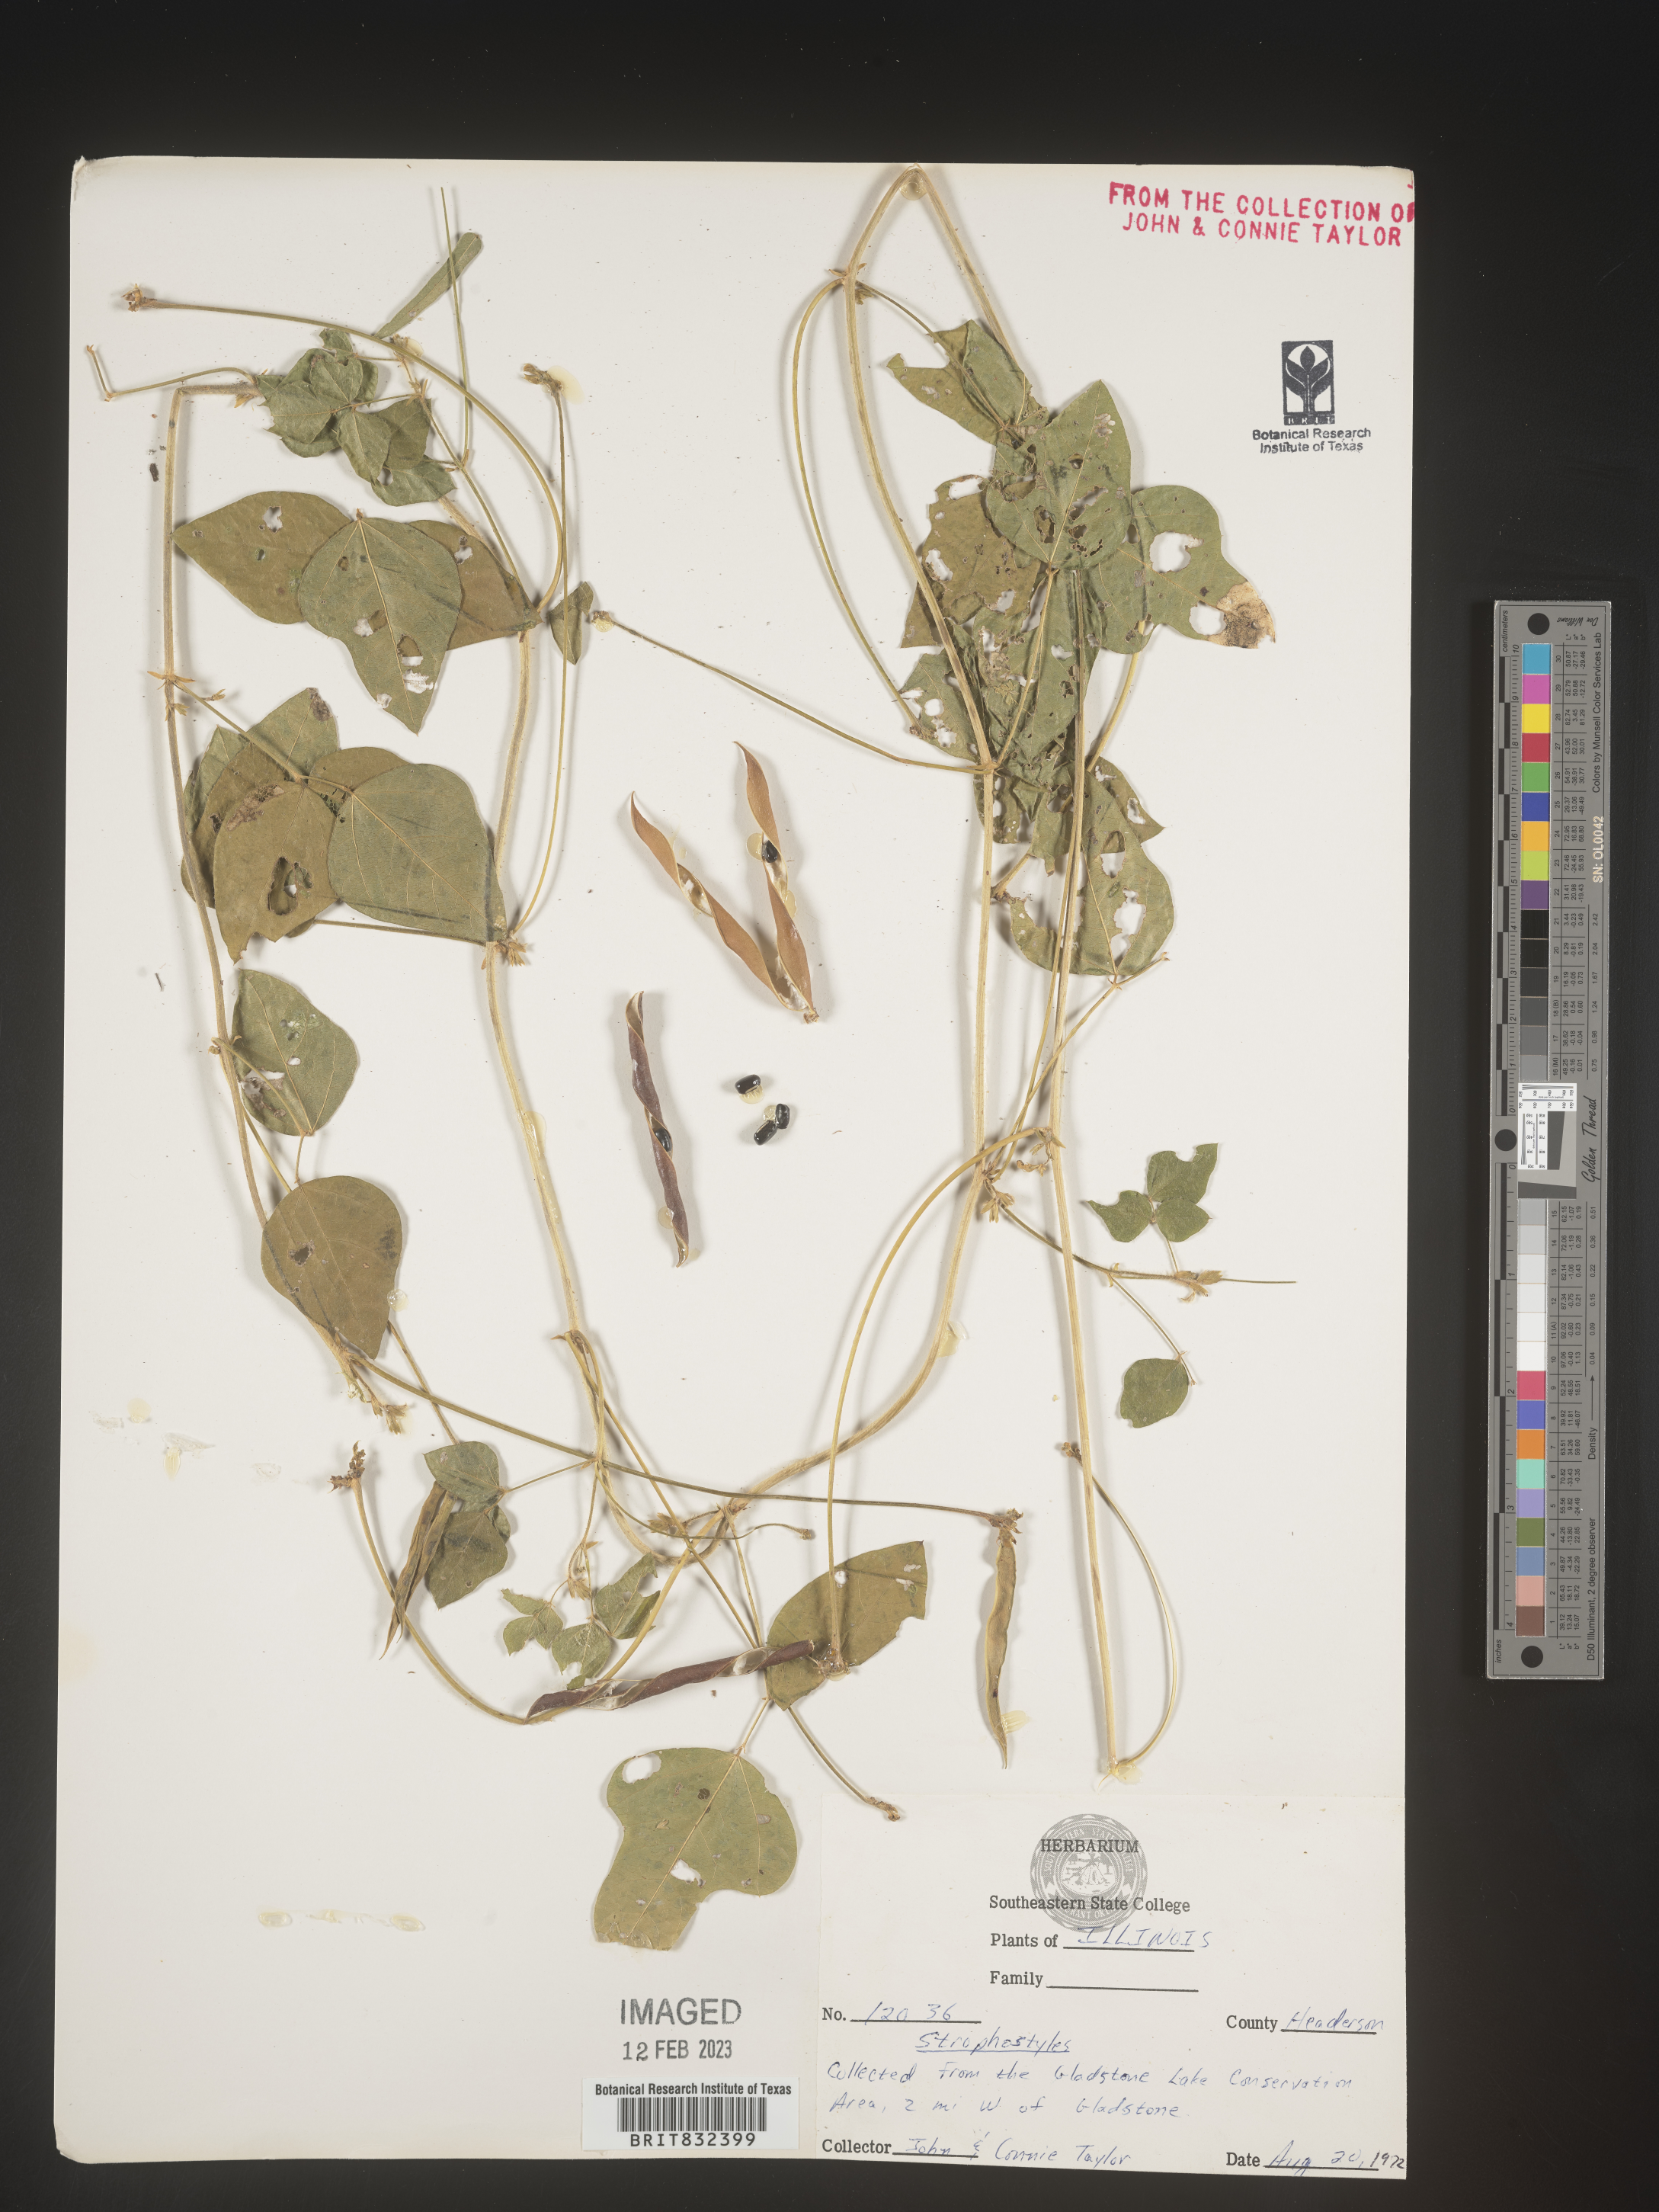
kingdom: Plantae
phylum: Tracheophyta
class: Magnoliopsida
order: Fabales
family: Fabaceae
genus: Strophostyles
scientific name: Strophostyles umbellata
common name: Perennial wild bean
